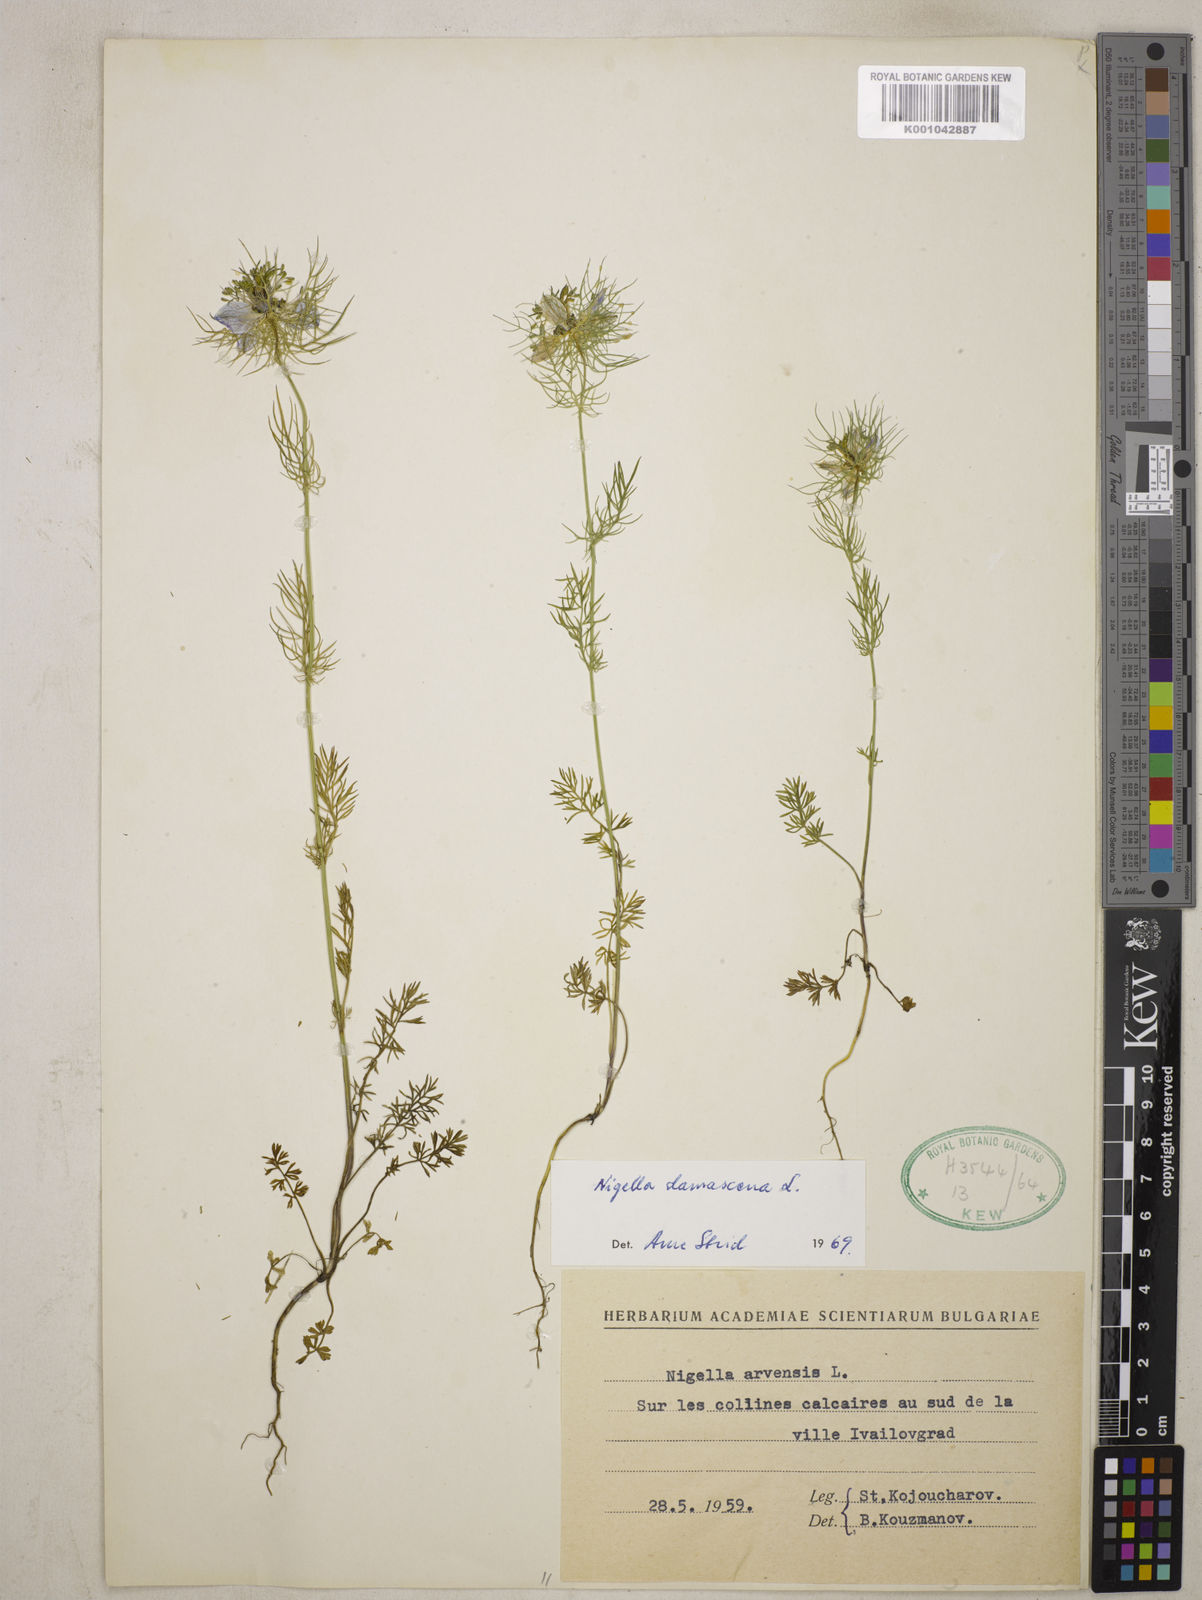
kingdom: Plantae
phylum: Tracheophyta
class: Magnoliopsida
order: Ranunculales
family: Ranunculaceae
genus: Nigella
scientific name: Nigella damascena
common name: Love-in-a-mist
